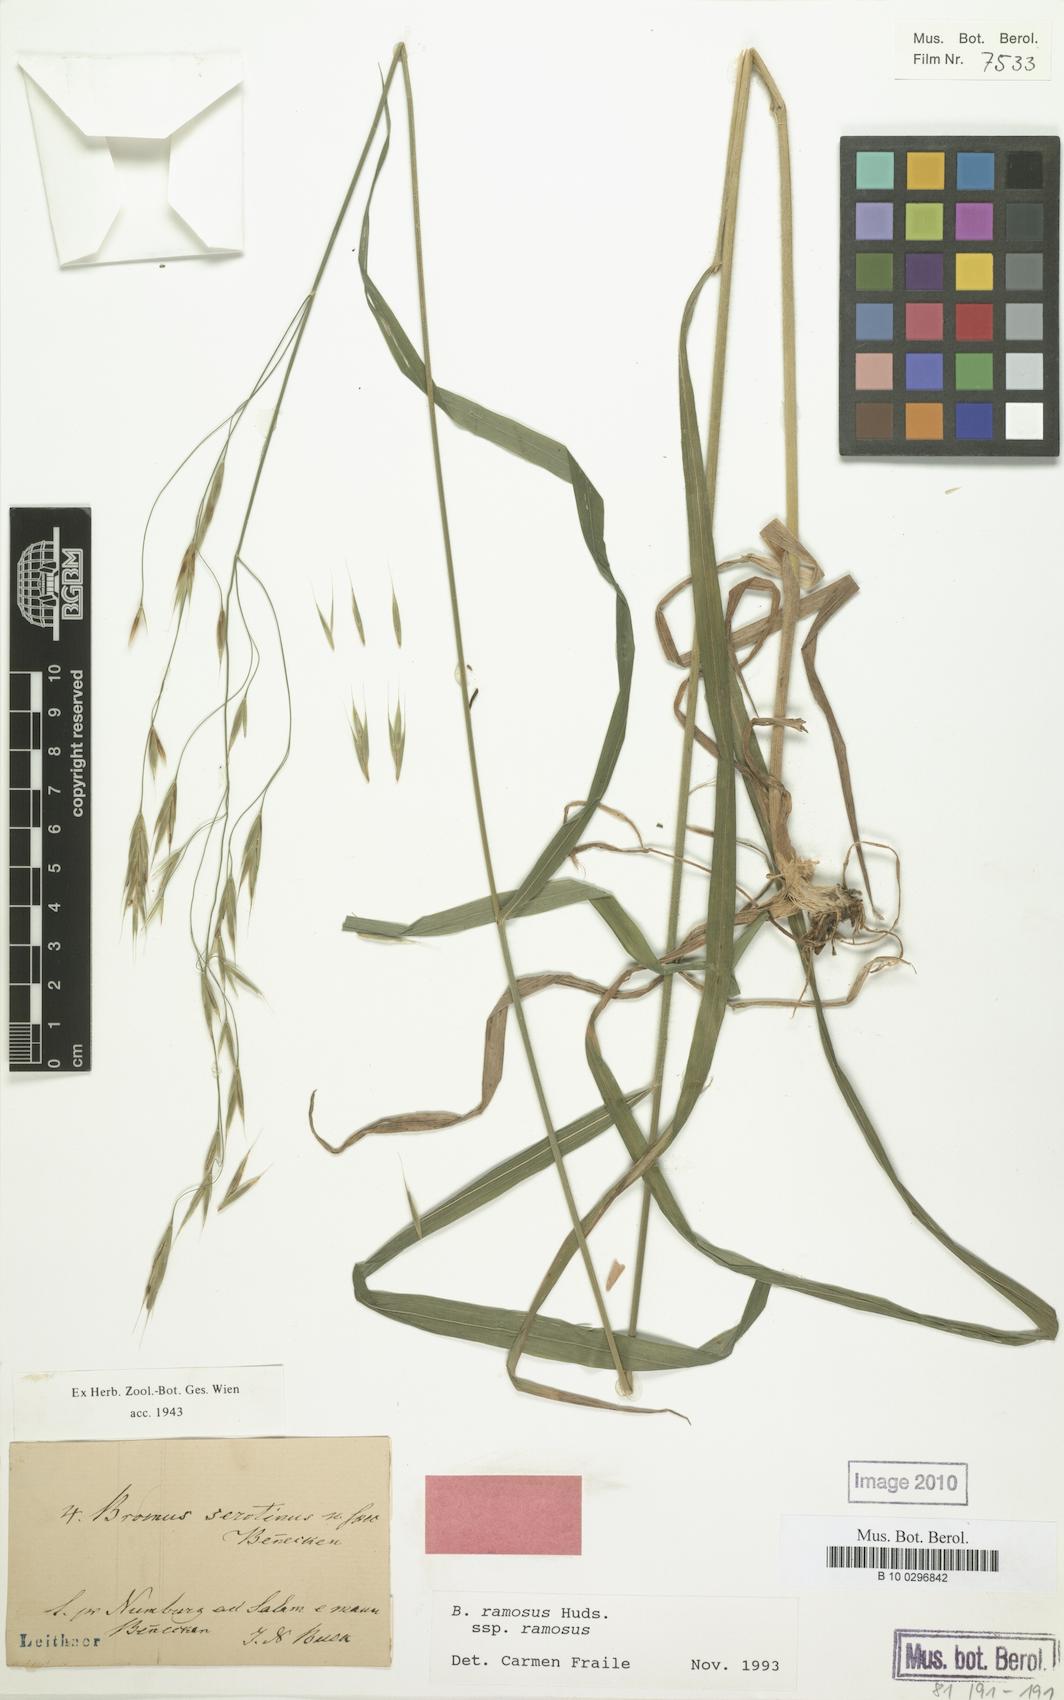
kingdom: Plantae
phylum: Tracheophyta
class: Liliopsida
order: Poales
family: Poaceae
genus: Bromus
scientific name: Bromus ramosus
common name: Hairy brome
